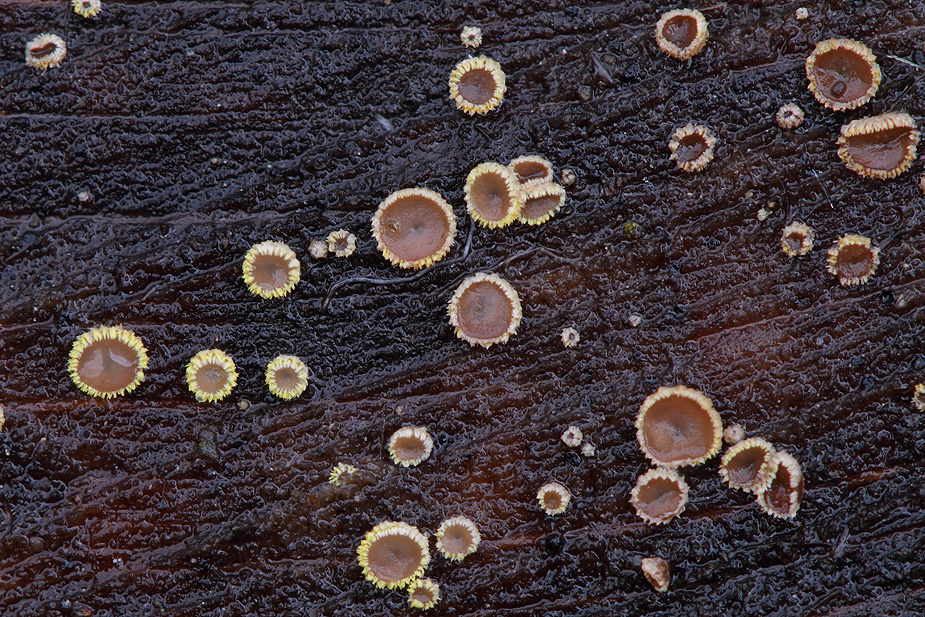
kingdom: Fungi
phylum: Ascomycota
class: Leotiomycetes
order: Helotiales
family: Lachnaceae
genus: Trichopeziza
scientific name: Trichopeziza subsulphurea
